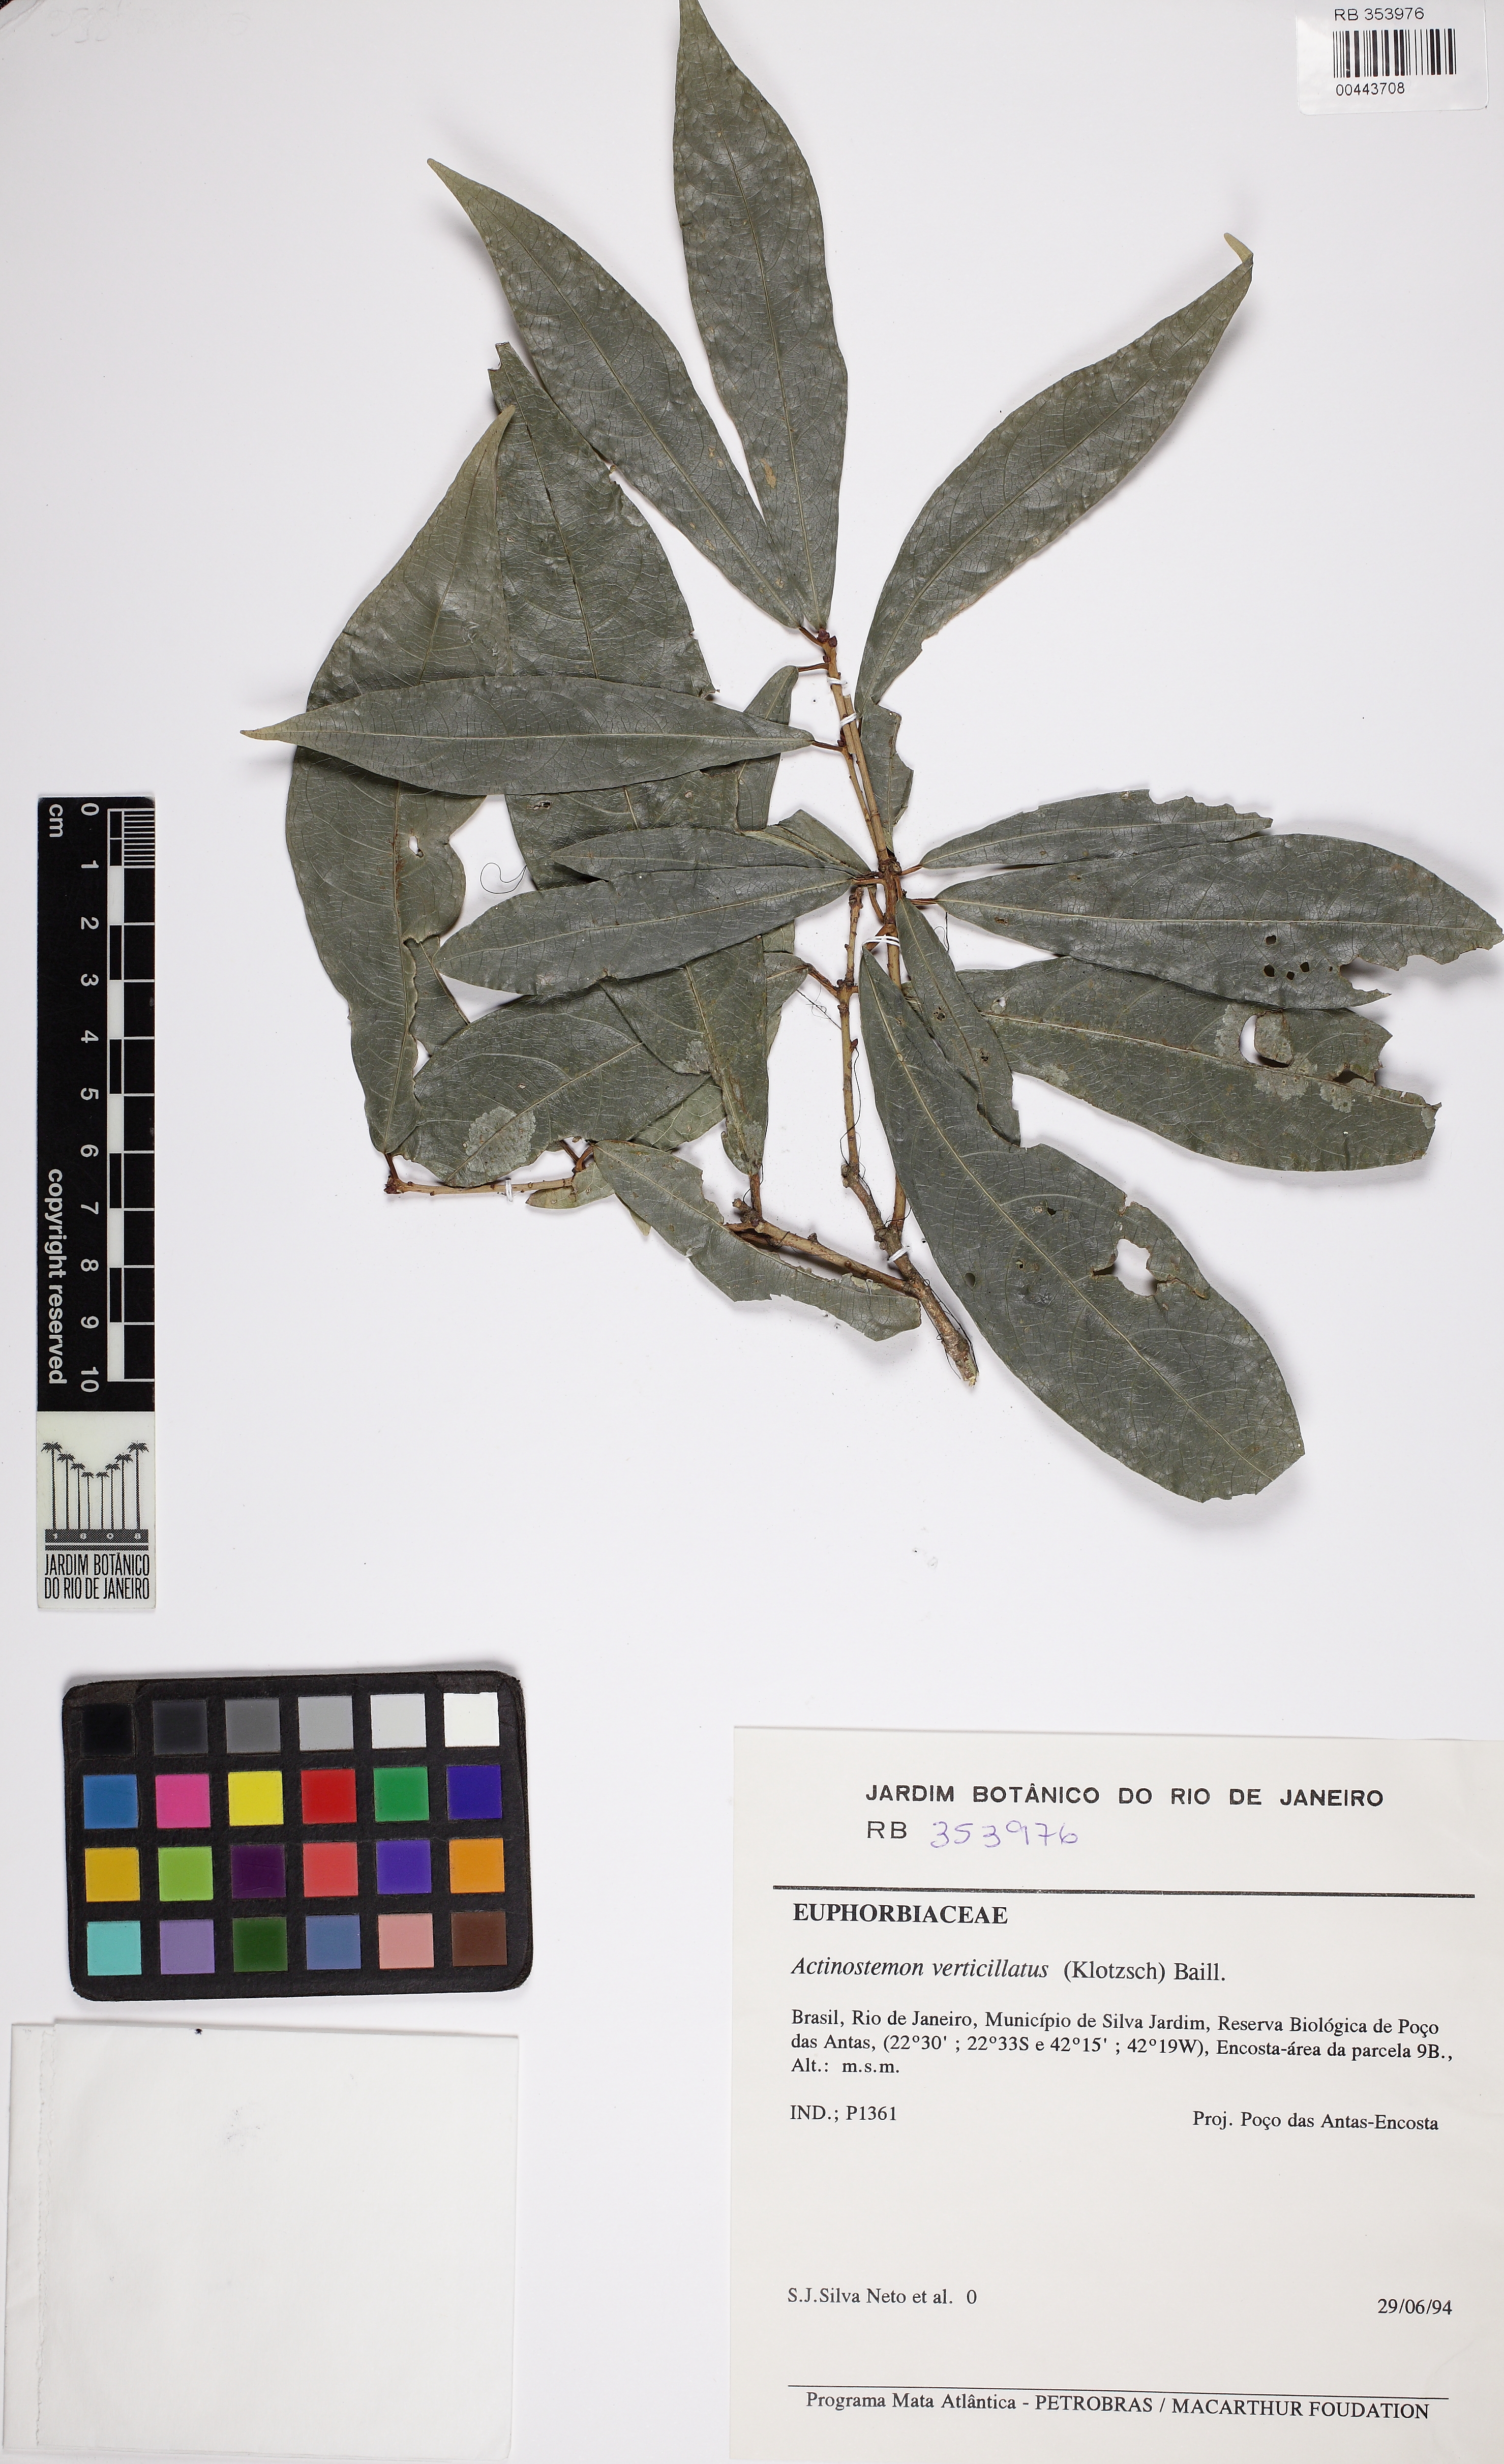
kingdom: Plantae
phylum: Tracheophyta
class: Magnoliopsida
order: Malpighiales
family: Euphorbiaceae
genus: Actinostemon
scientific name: Actinostemon verticillatus
